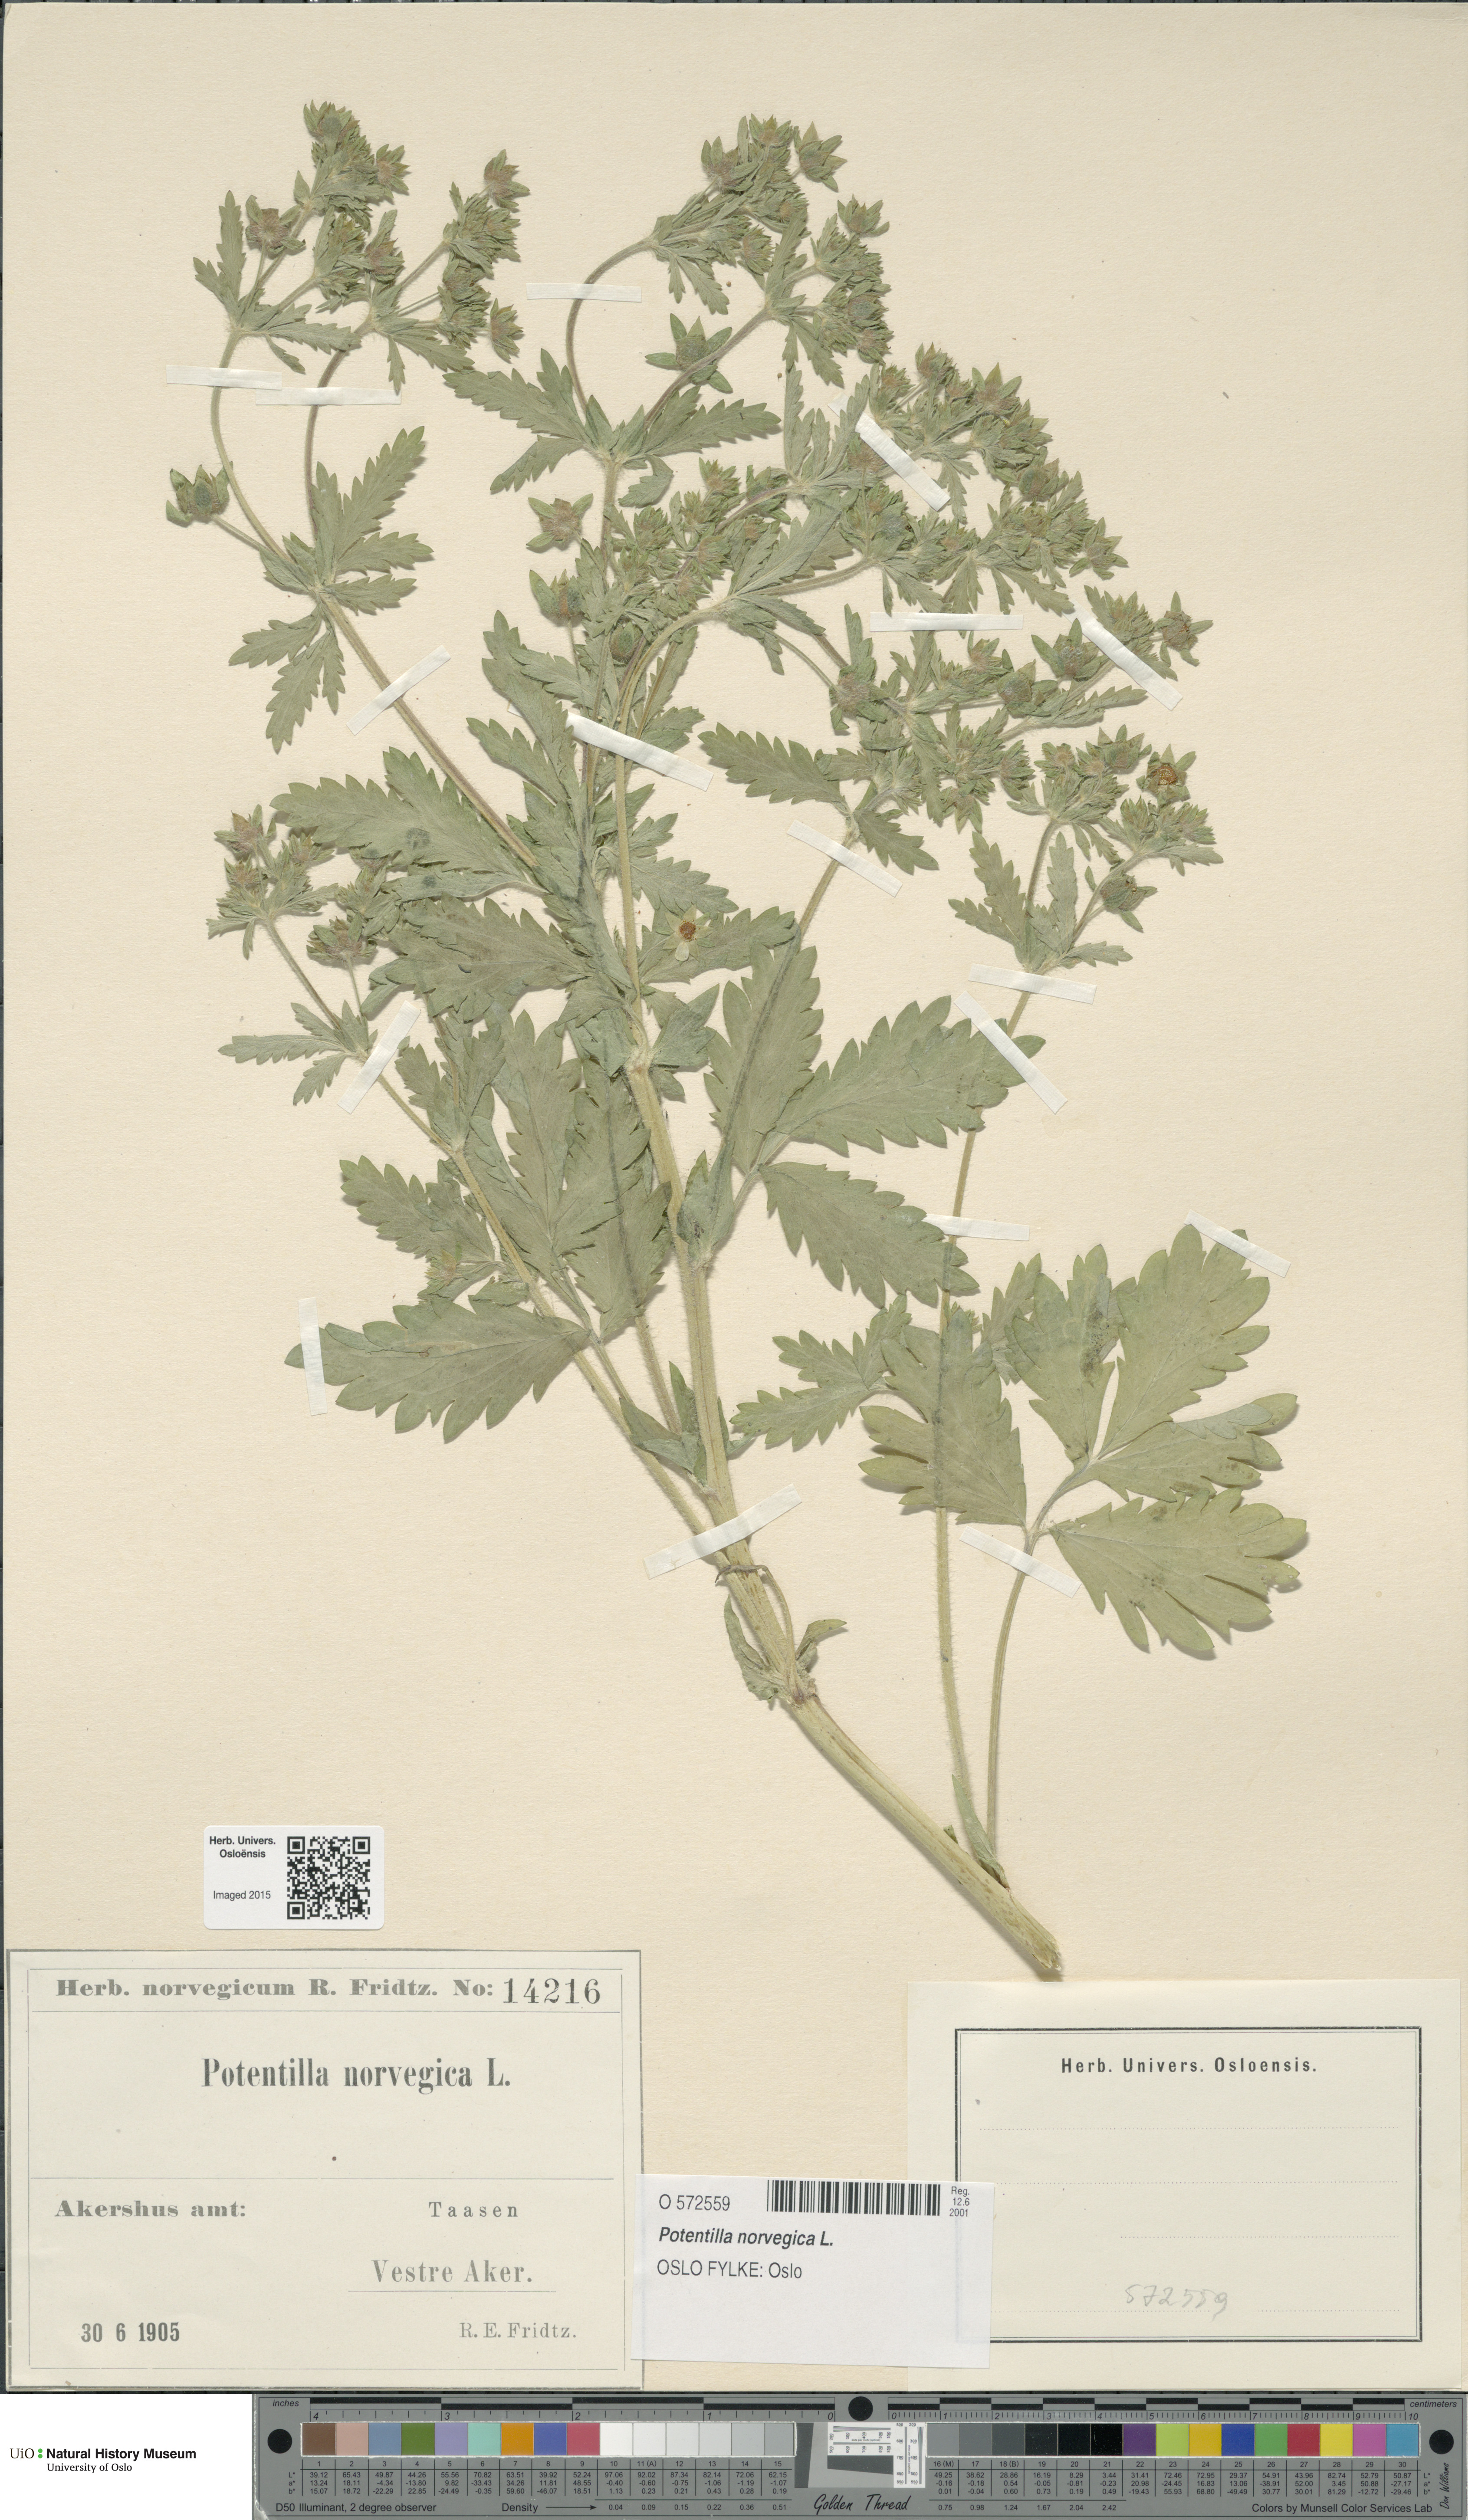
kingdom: Plantae
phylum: Tracheophyta
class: Magnoliopsida
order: Rosales
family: Rosaceae
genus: Potentilla
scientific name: Potentilla norvegica
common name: Ternate-leaved cinquefoil
